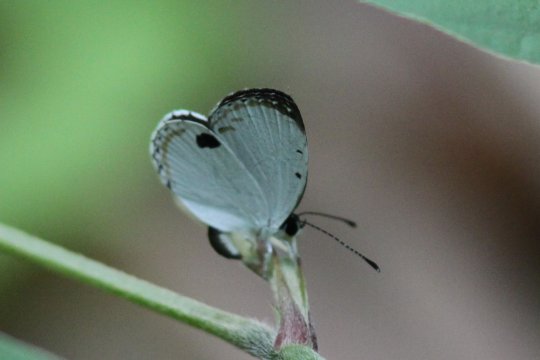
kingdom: Animalia
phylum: Arthropoda
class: Insecta
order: Lepidoptera
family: Lycaenidae
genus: Pithecops
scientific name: Pithecops corvus
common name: Forest Quaker
